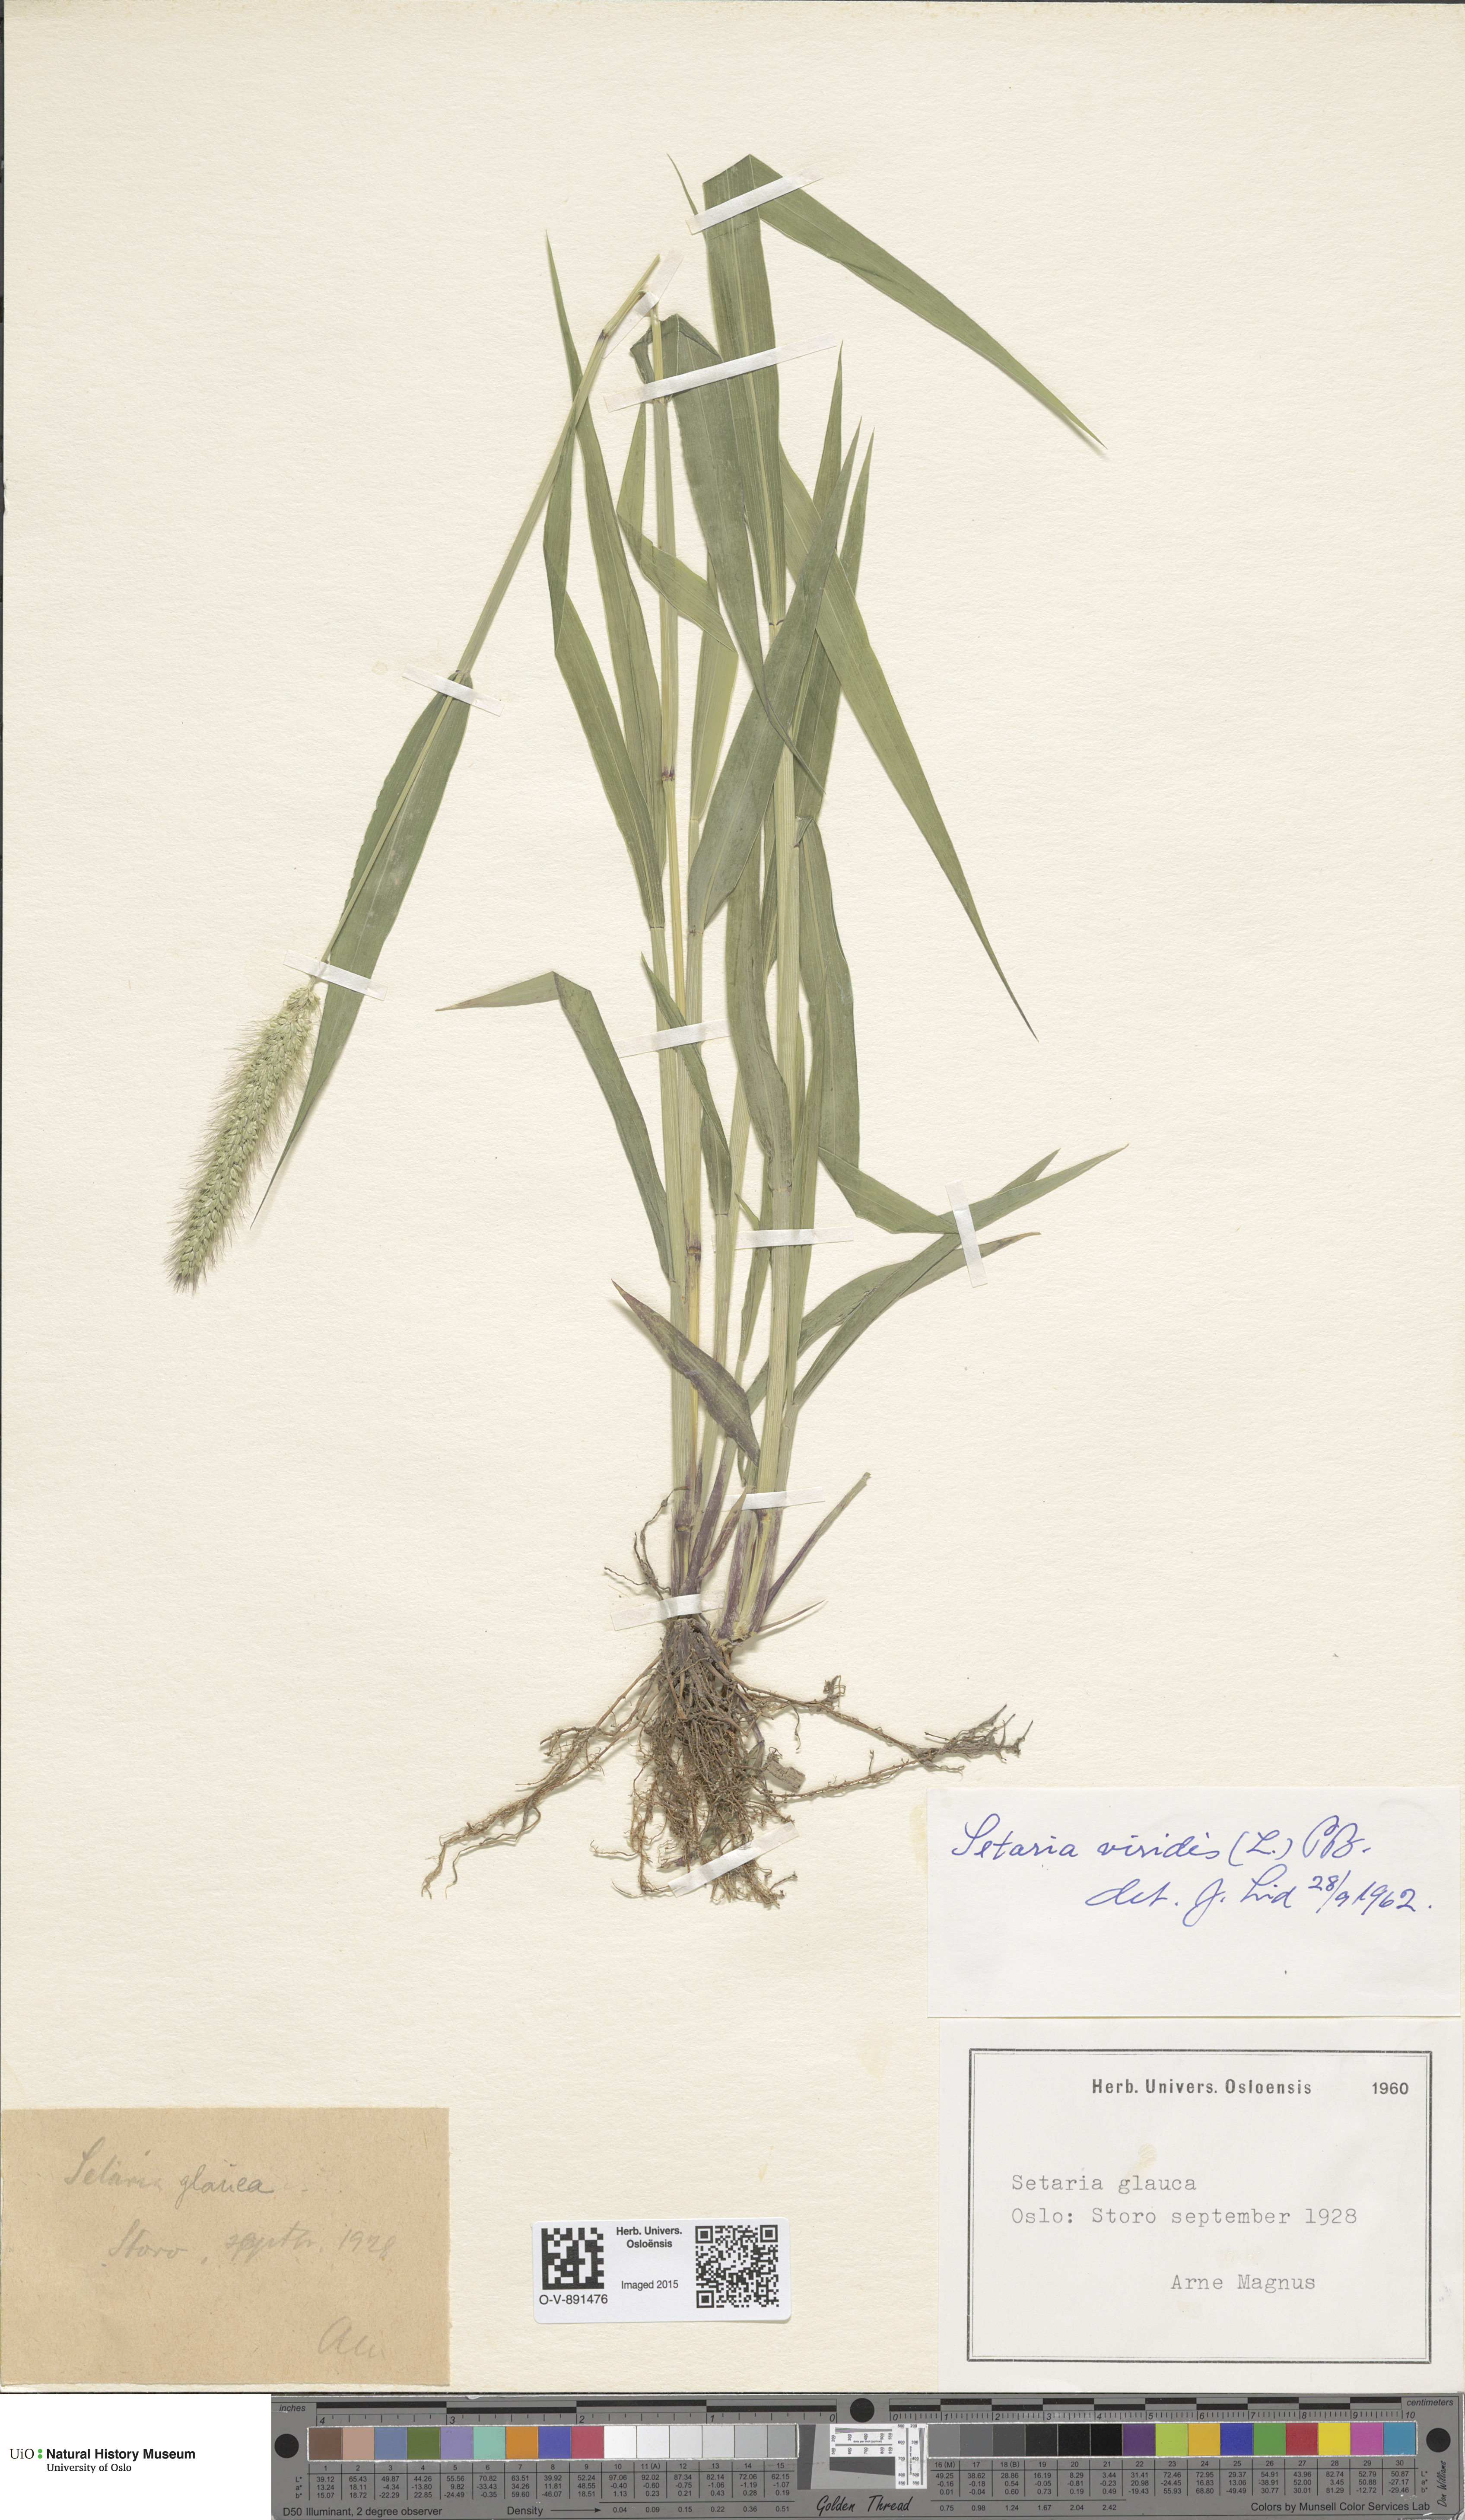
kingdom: Plantae
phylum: Tracheophyta
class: Liliopsida
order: Poales
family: Poaceae
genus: Setaria
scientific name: Setaria viridis
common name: Green bristlegrass
